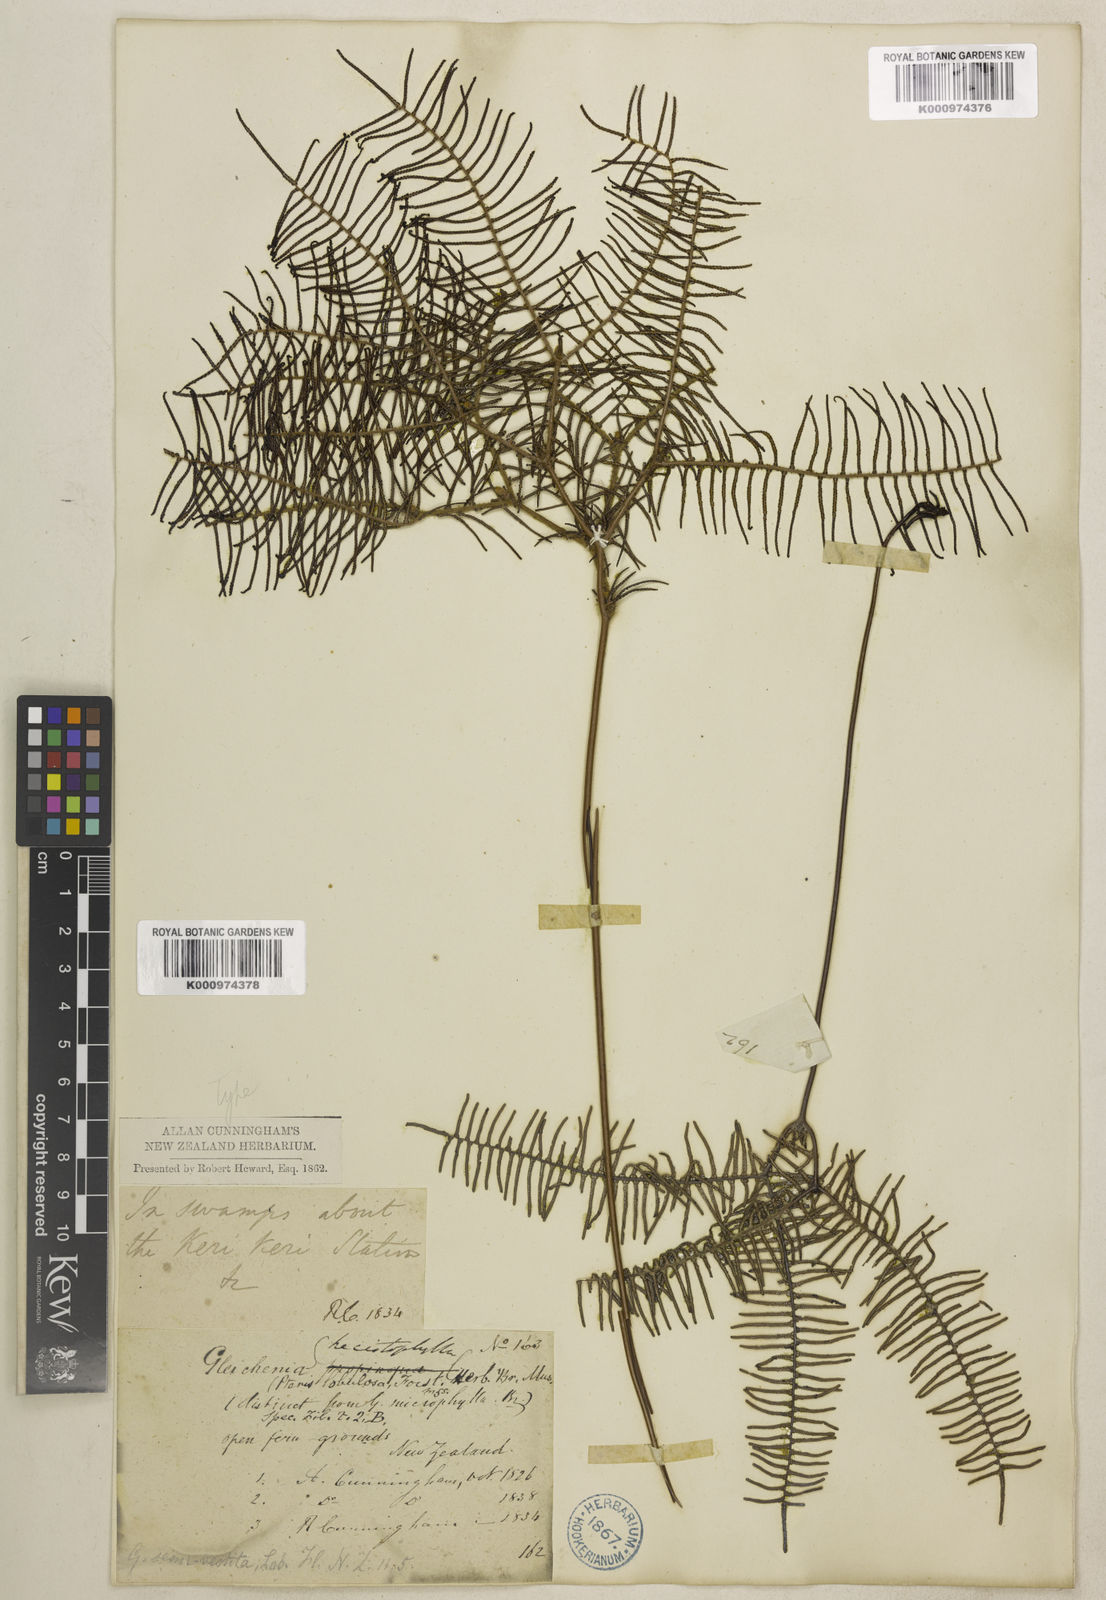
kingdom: Plantae
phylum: Tracheophyta
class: Polypodiopsida
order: Gleicheniales
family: Gleicheniaceae
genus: Gleichenia
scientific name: Gleichenia dicarpa
